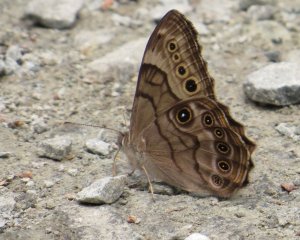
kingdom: Animalia
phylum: Arthropoda
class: Insecta
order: Lepidoptera
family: Nymphalidae
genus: Lethe
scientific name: Lethe anthedon
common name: Northern Pearly-Eye
